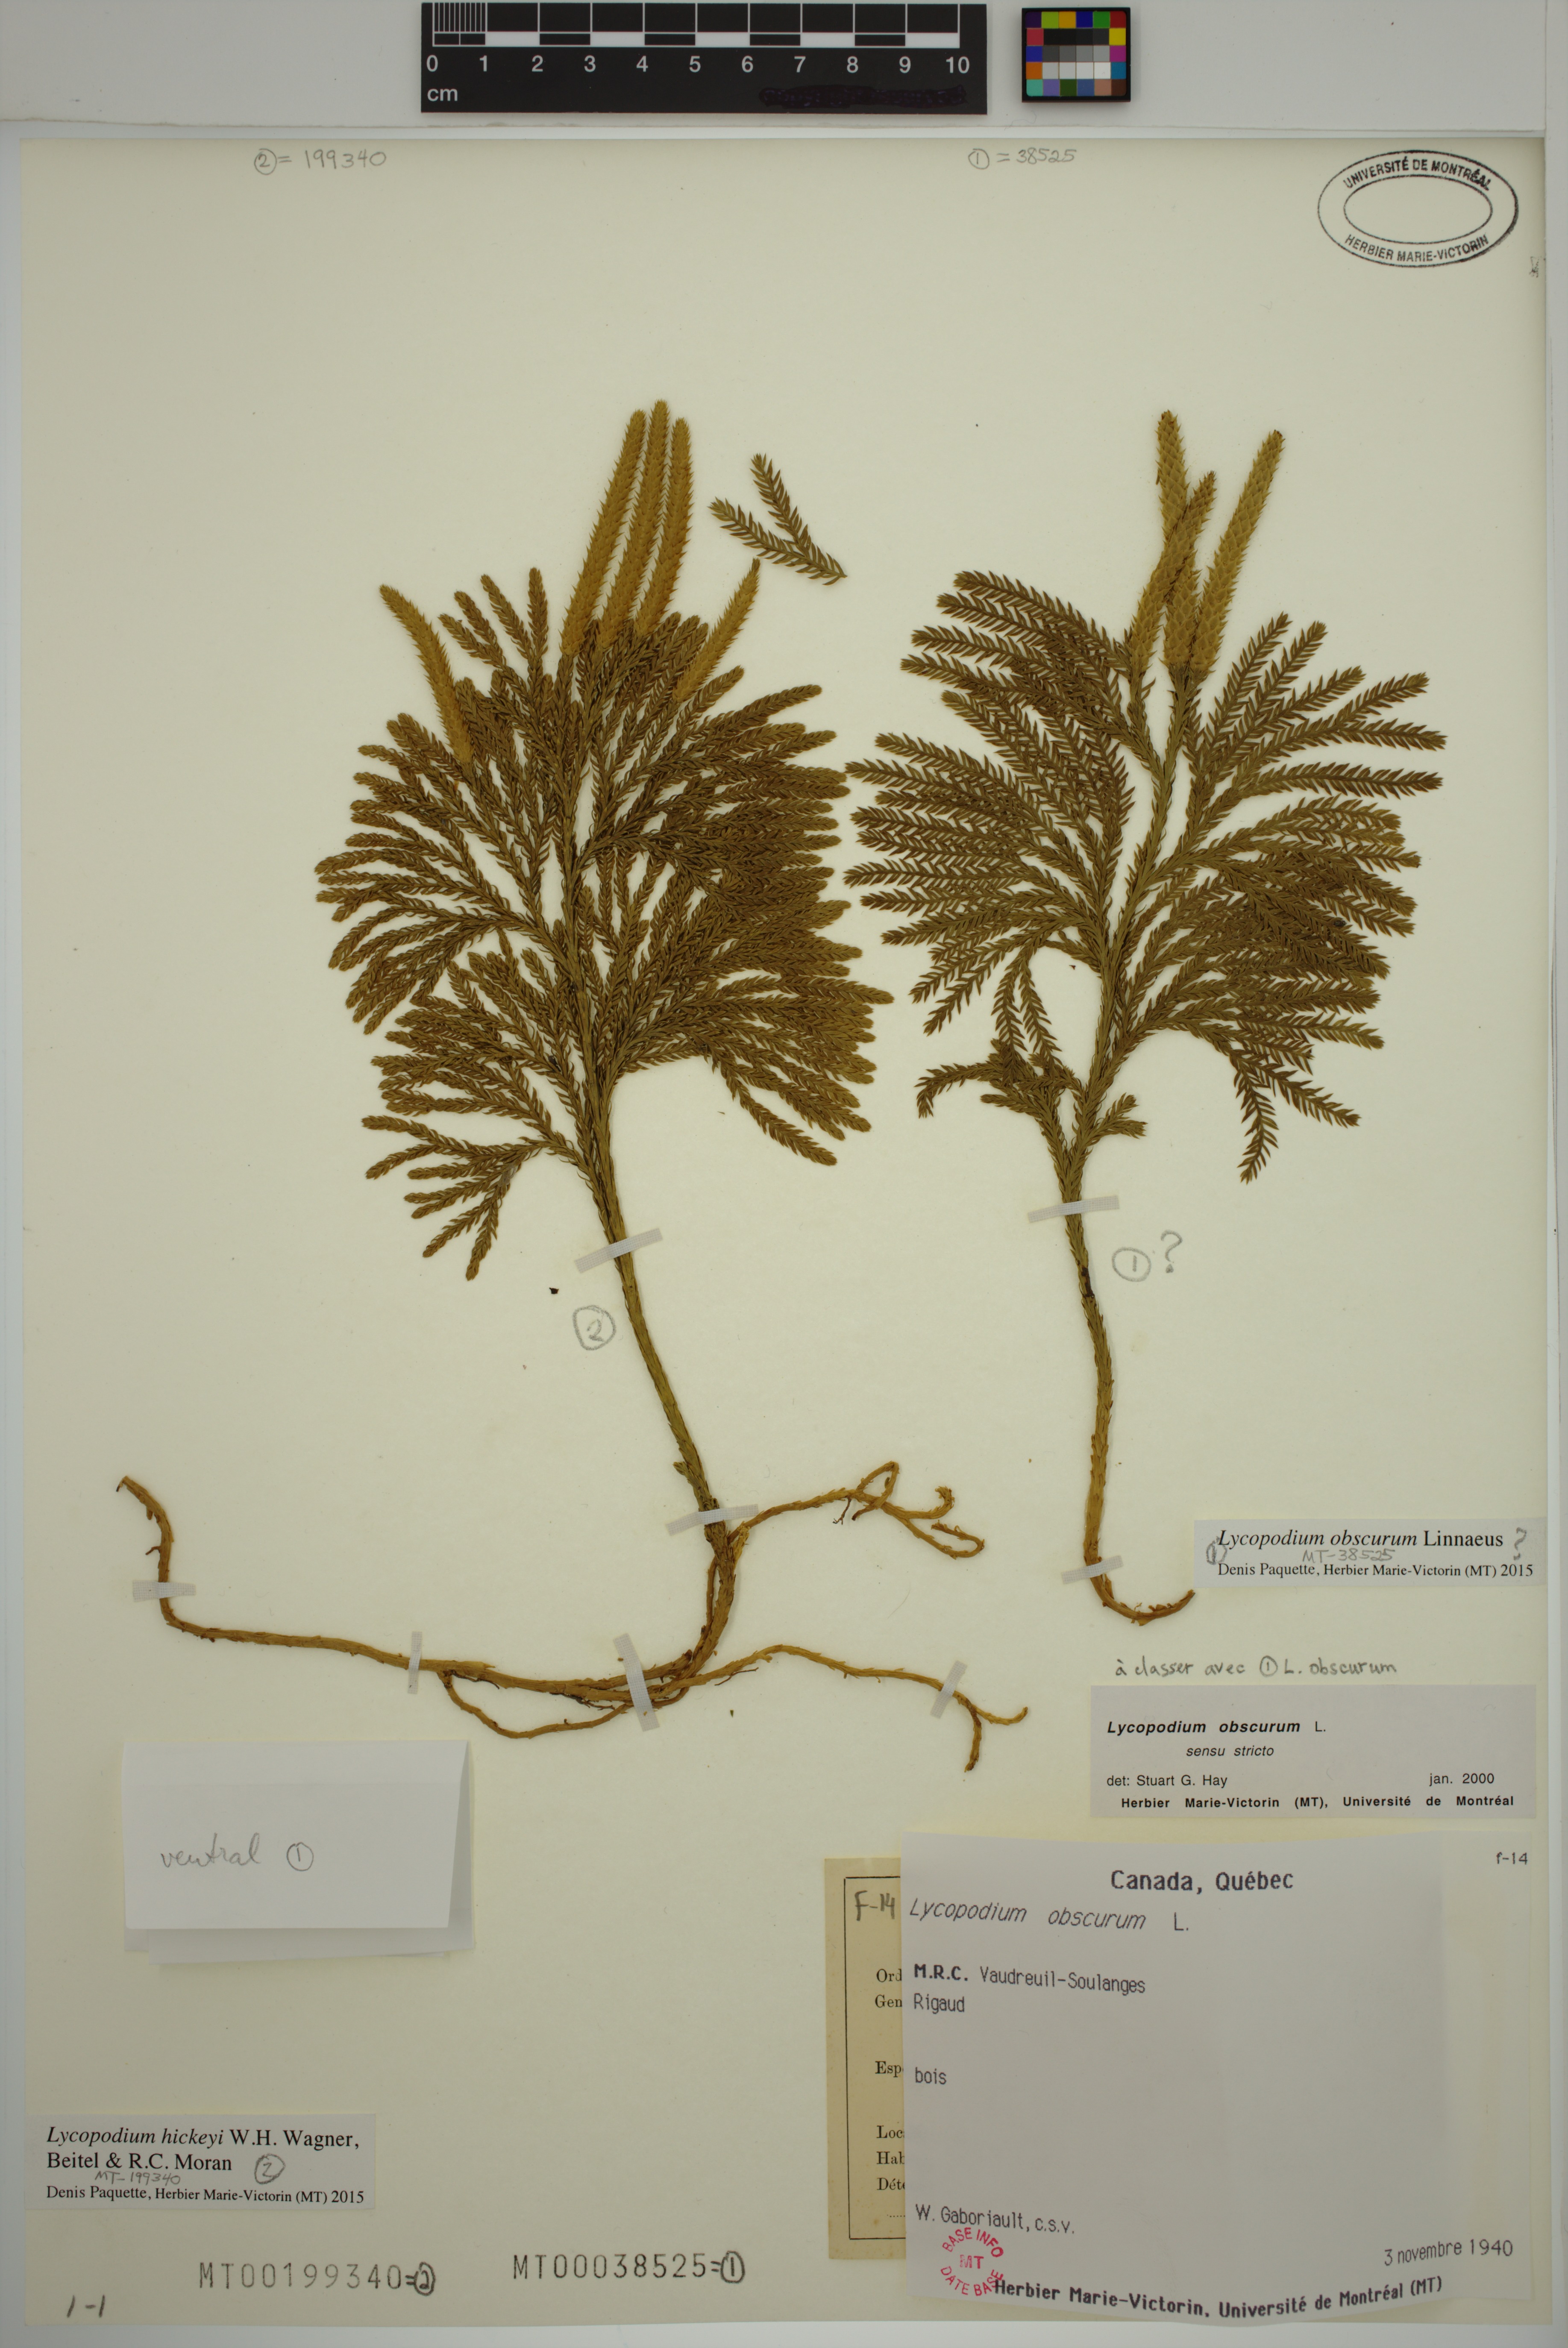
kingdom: Plantae
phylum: Tracheophyta
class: Lycopodiopsida
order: Lycopodiales
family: Lycopodiaceae
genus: Dendrolycopodium
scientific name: Dendrolycopodium hickeyi
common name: Hickey's clubmoss
